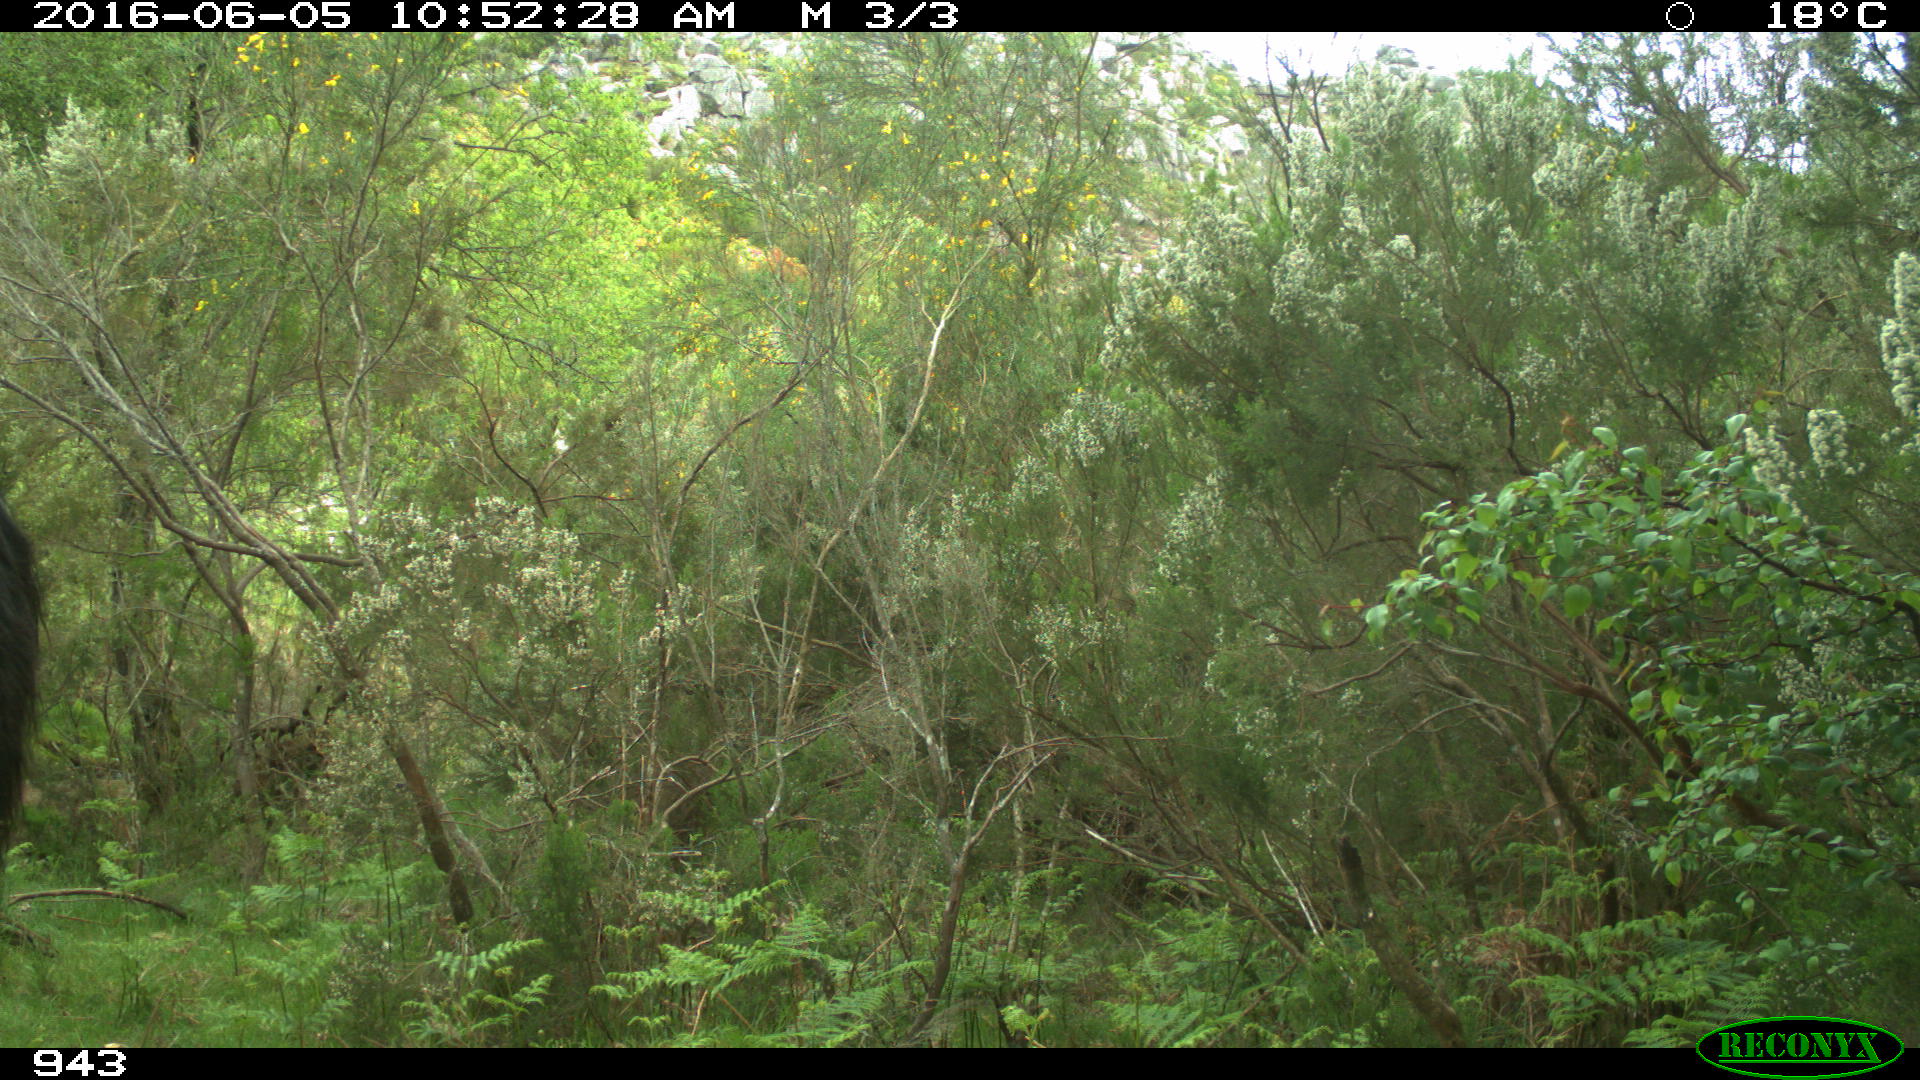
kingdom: Animalia
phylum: Chordata
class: Mammalia
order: Perissodactyla
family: Equidae
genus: Equus
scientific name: Equus caballus
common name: Horse
